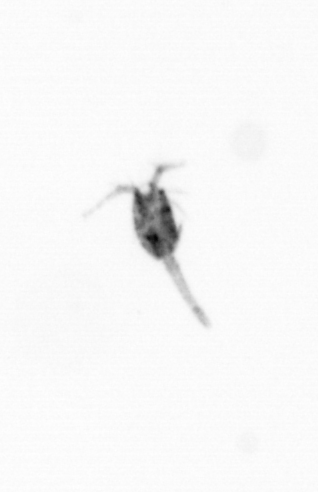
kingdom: Animalia
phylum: Arthropoda
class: Copepoda
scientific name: Copepoda
